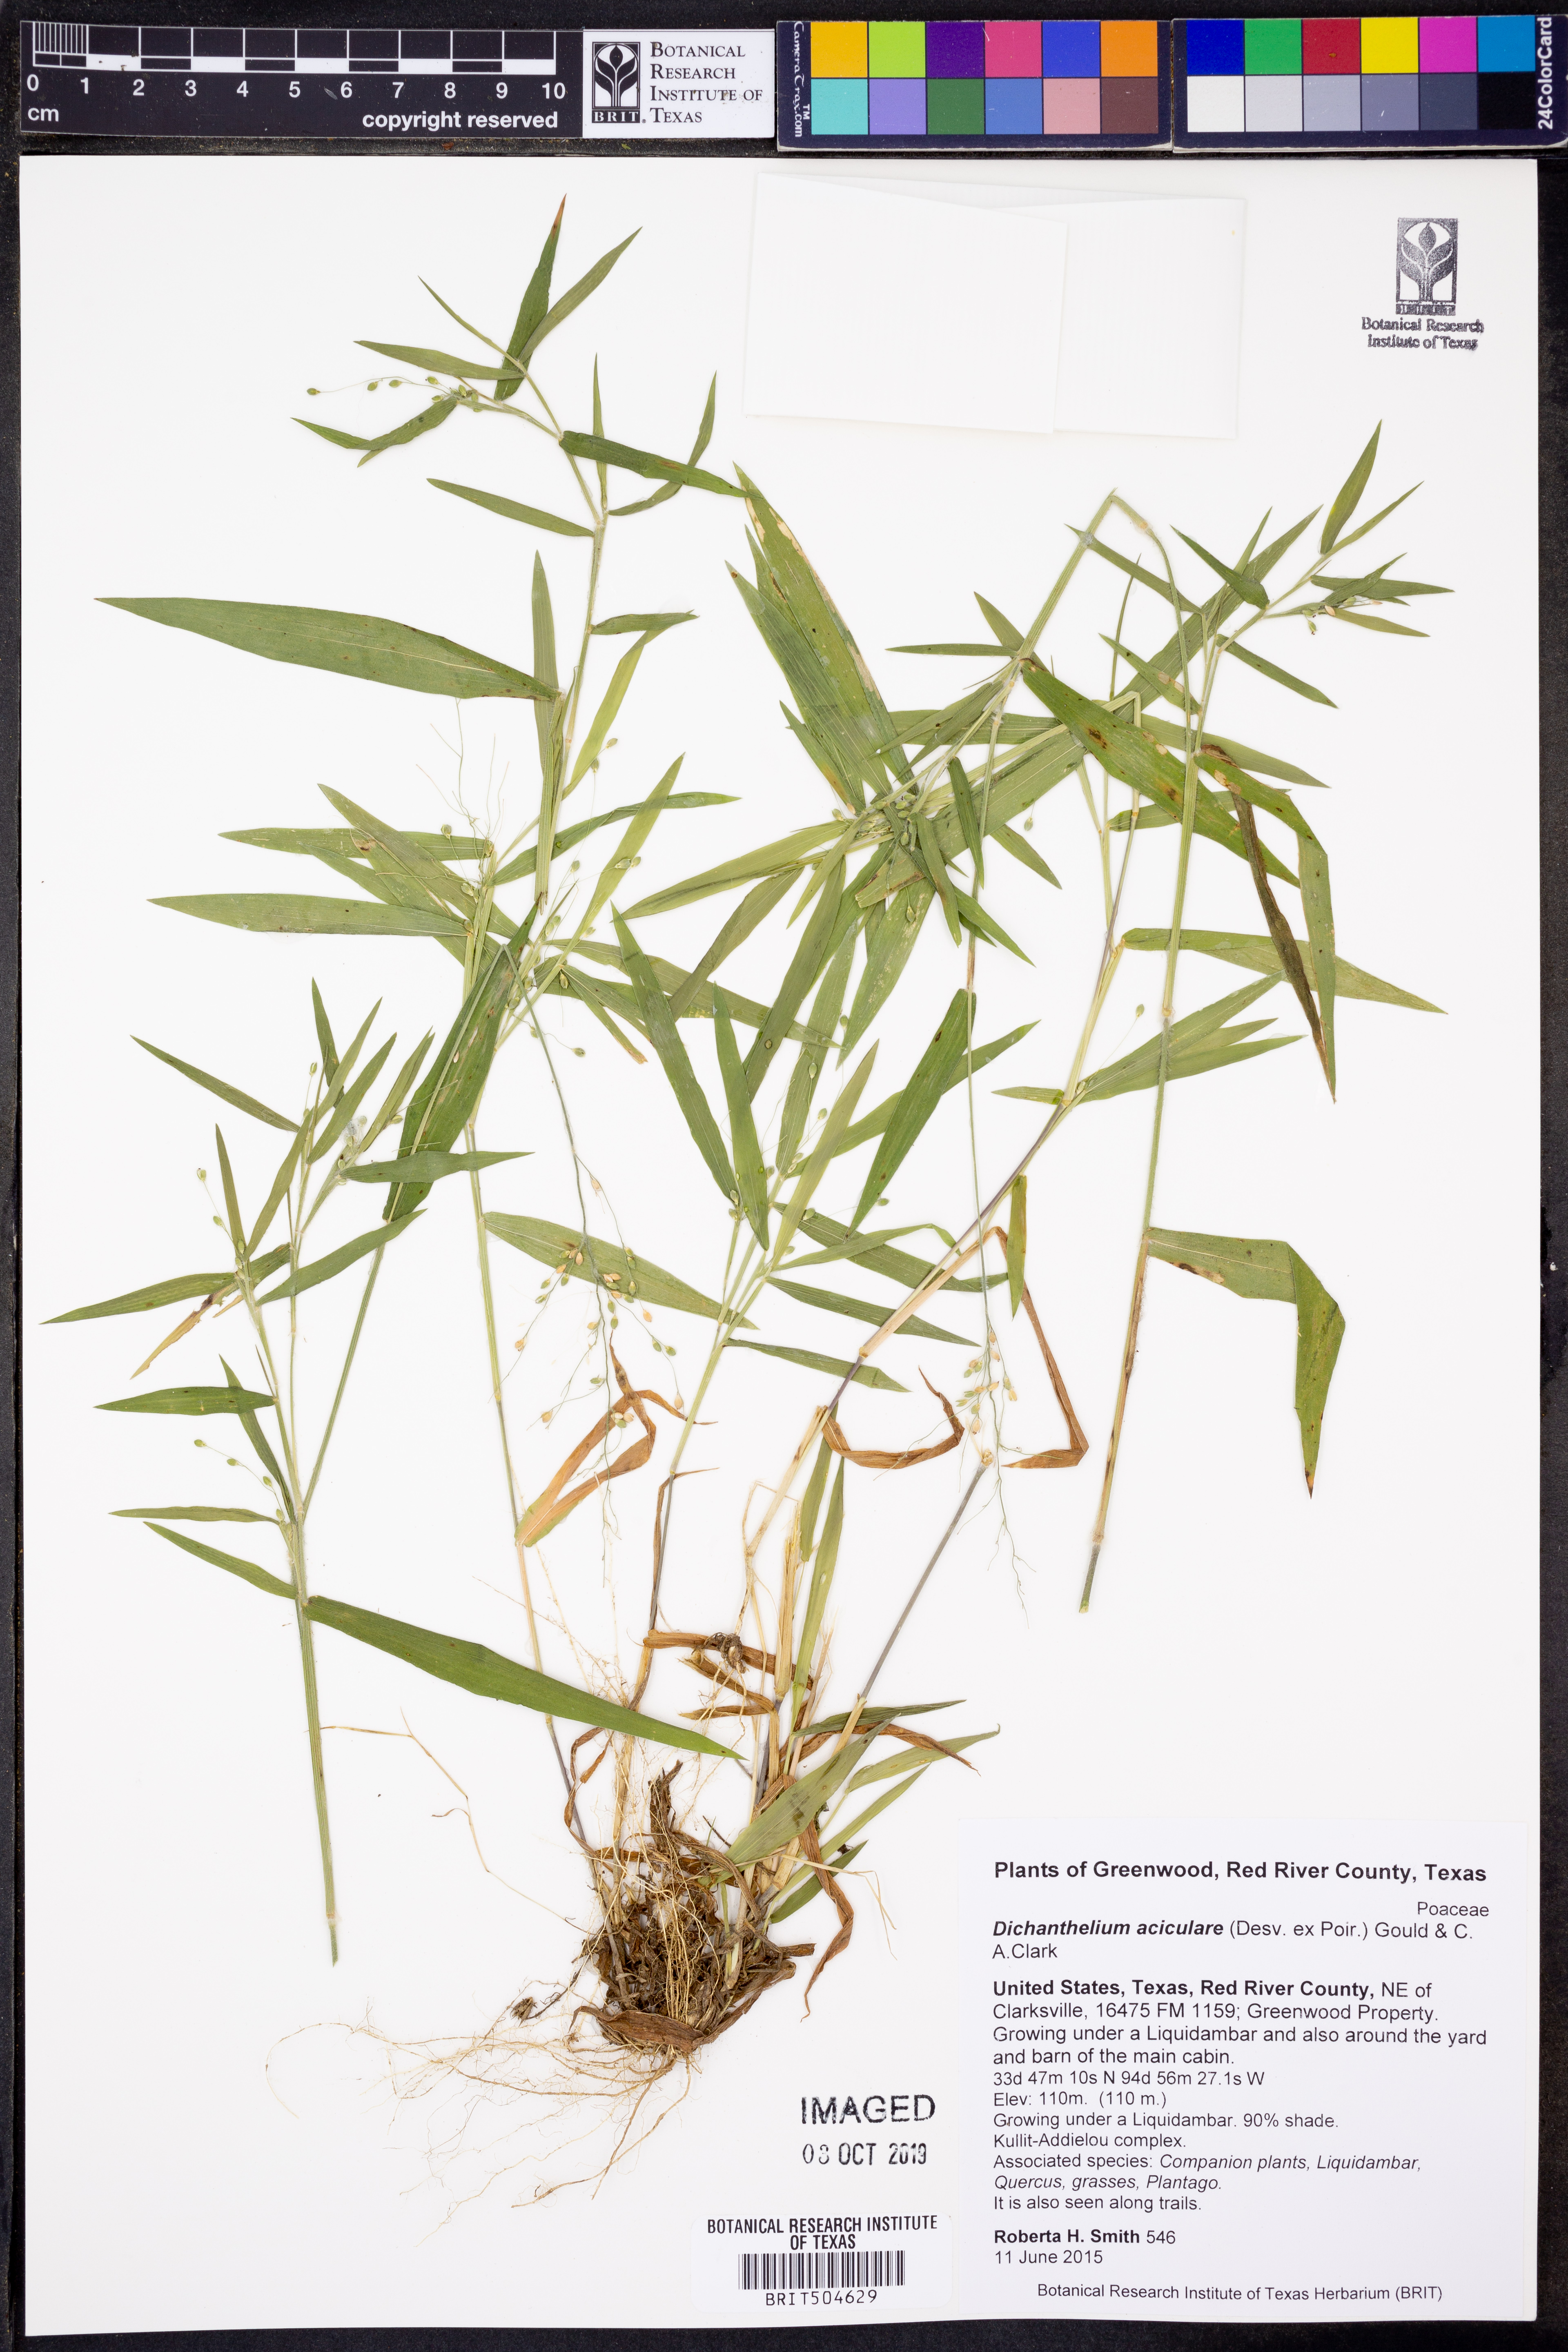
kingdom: Plantae
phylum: Tracheophyta
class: Liliopsida
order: Poales
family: Poaceae
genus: Dichanthelium
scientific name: Dichanthelium aciculare
